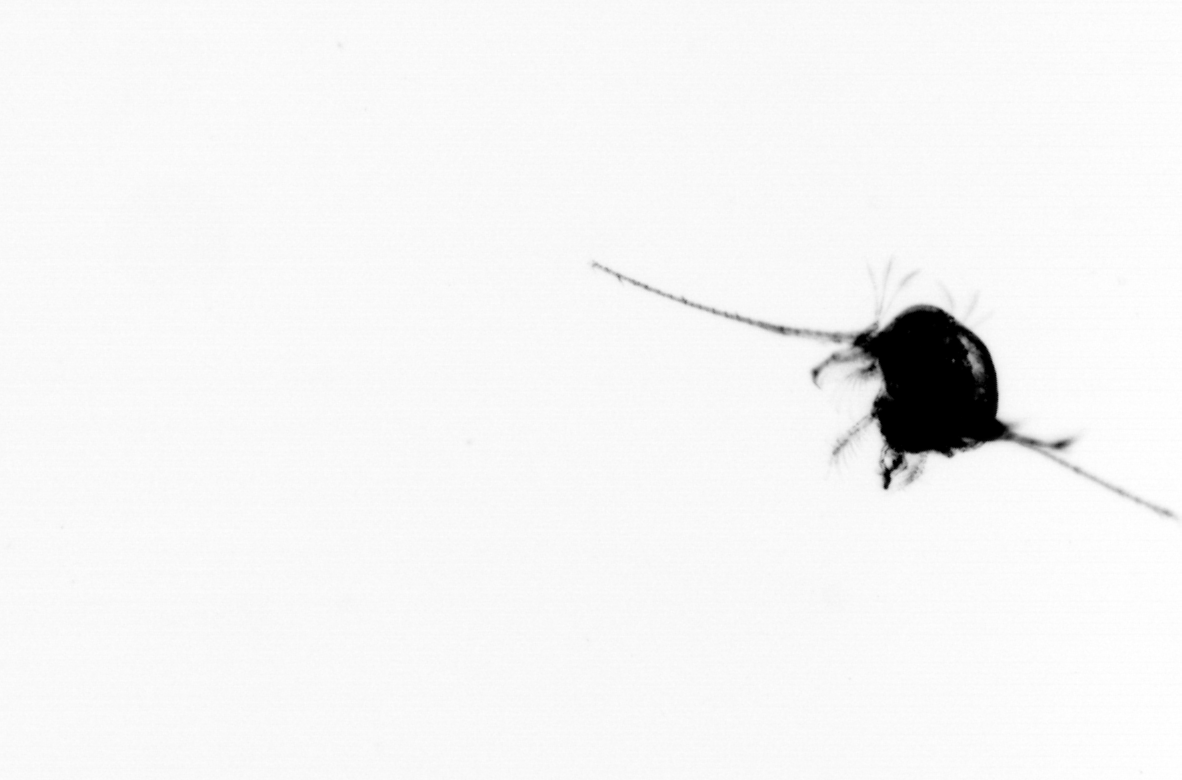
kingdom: Animalia
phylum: Arthropoda
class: Copepoda
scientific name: Copepoda
